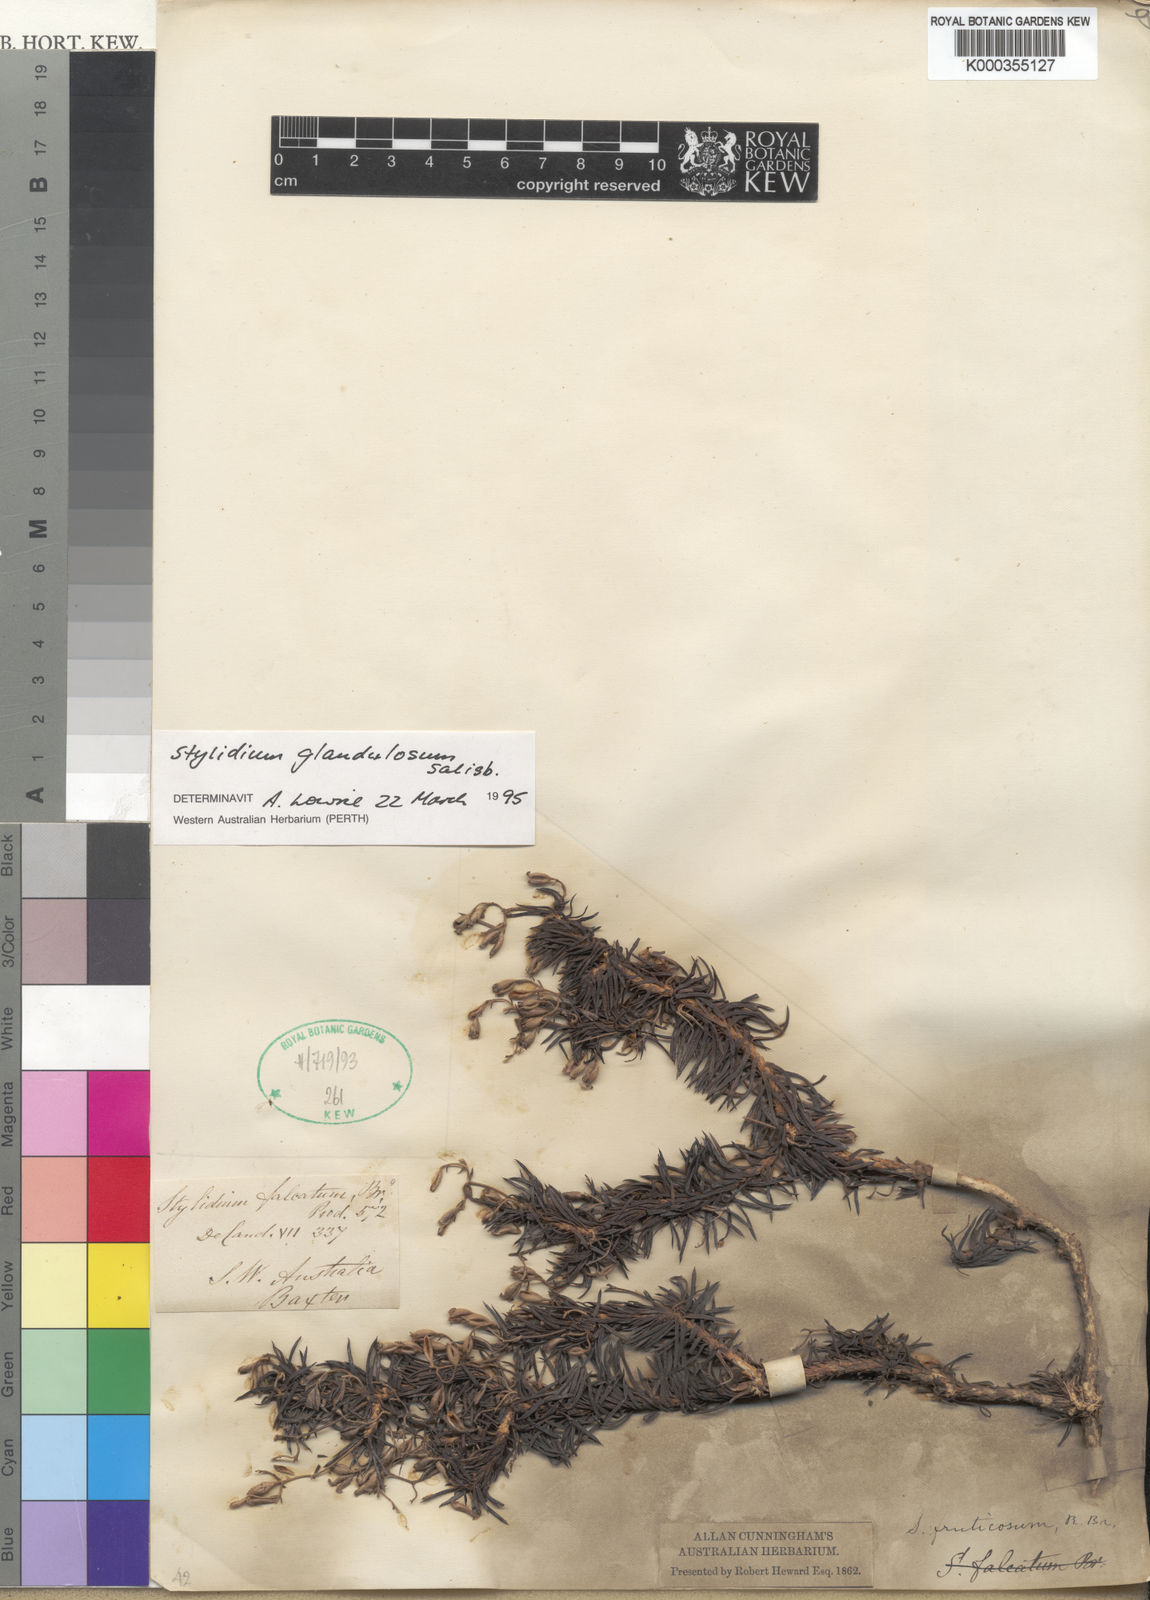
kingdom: Plantae
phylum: Tracheophyta
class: Magnoliopsida
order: Asterales
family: Stylidiaceae
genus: Stylidium
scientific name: Stylidium glandulosum
